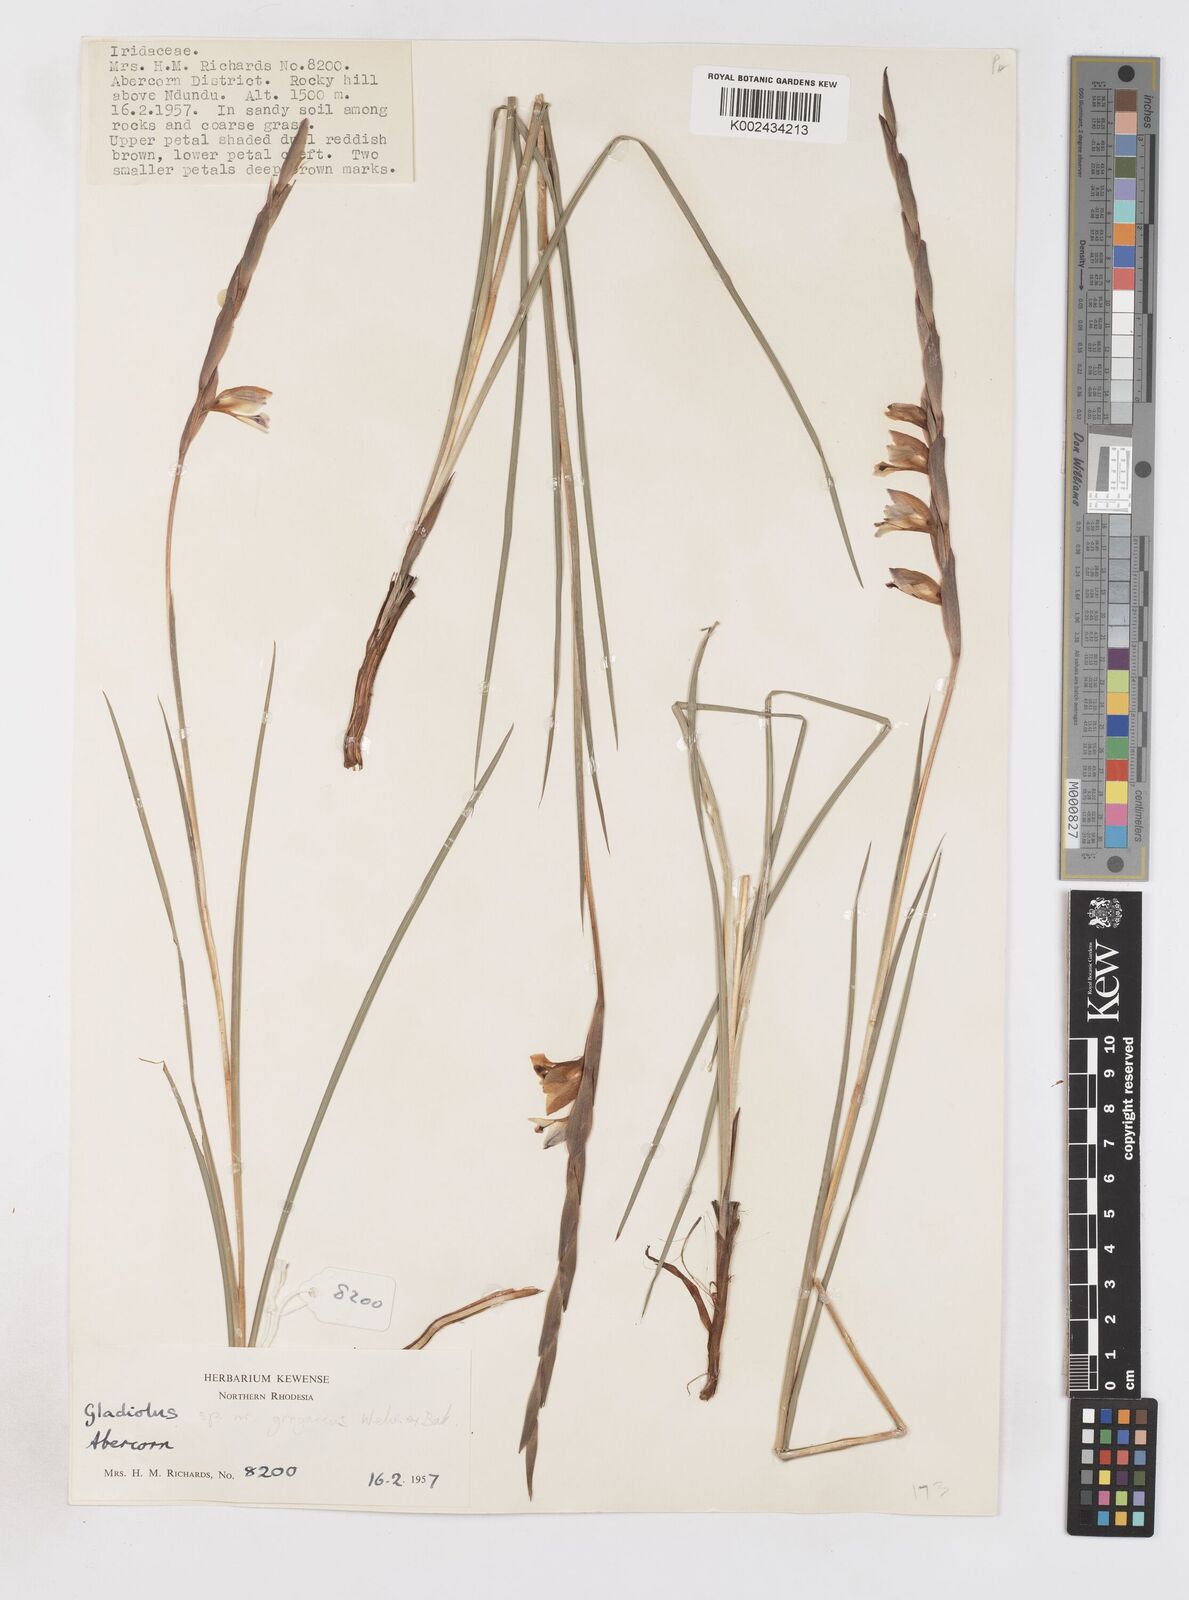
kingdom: Plantae
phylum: Tracheophyta
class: Liliopsida
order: Asparagales
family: Iridaceae
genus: Gladiolus
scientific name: Gladiolus gregarius
